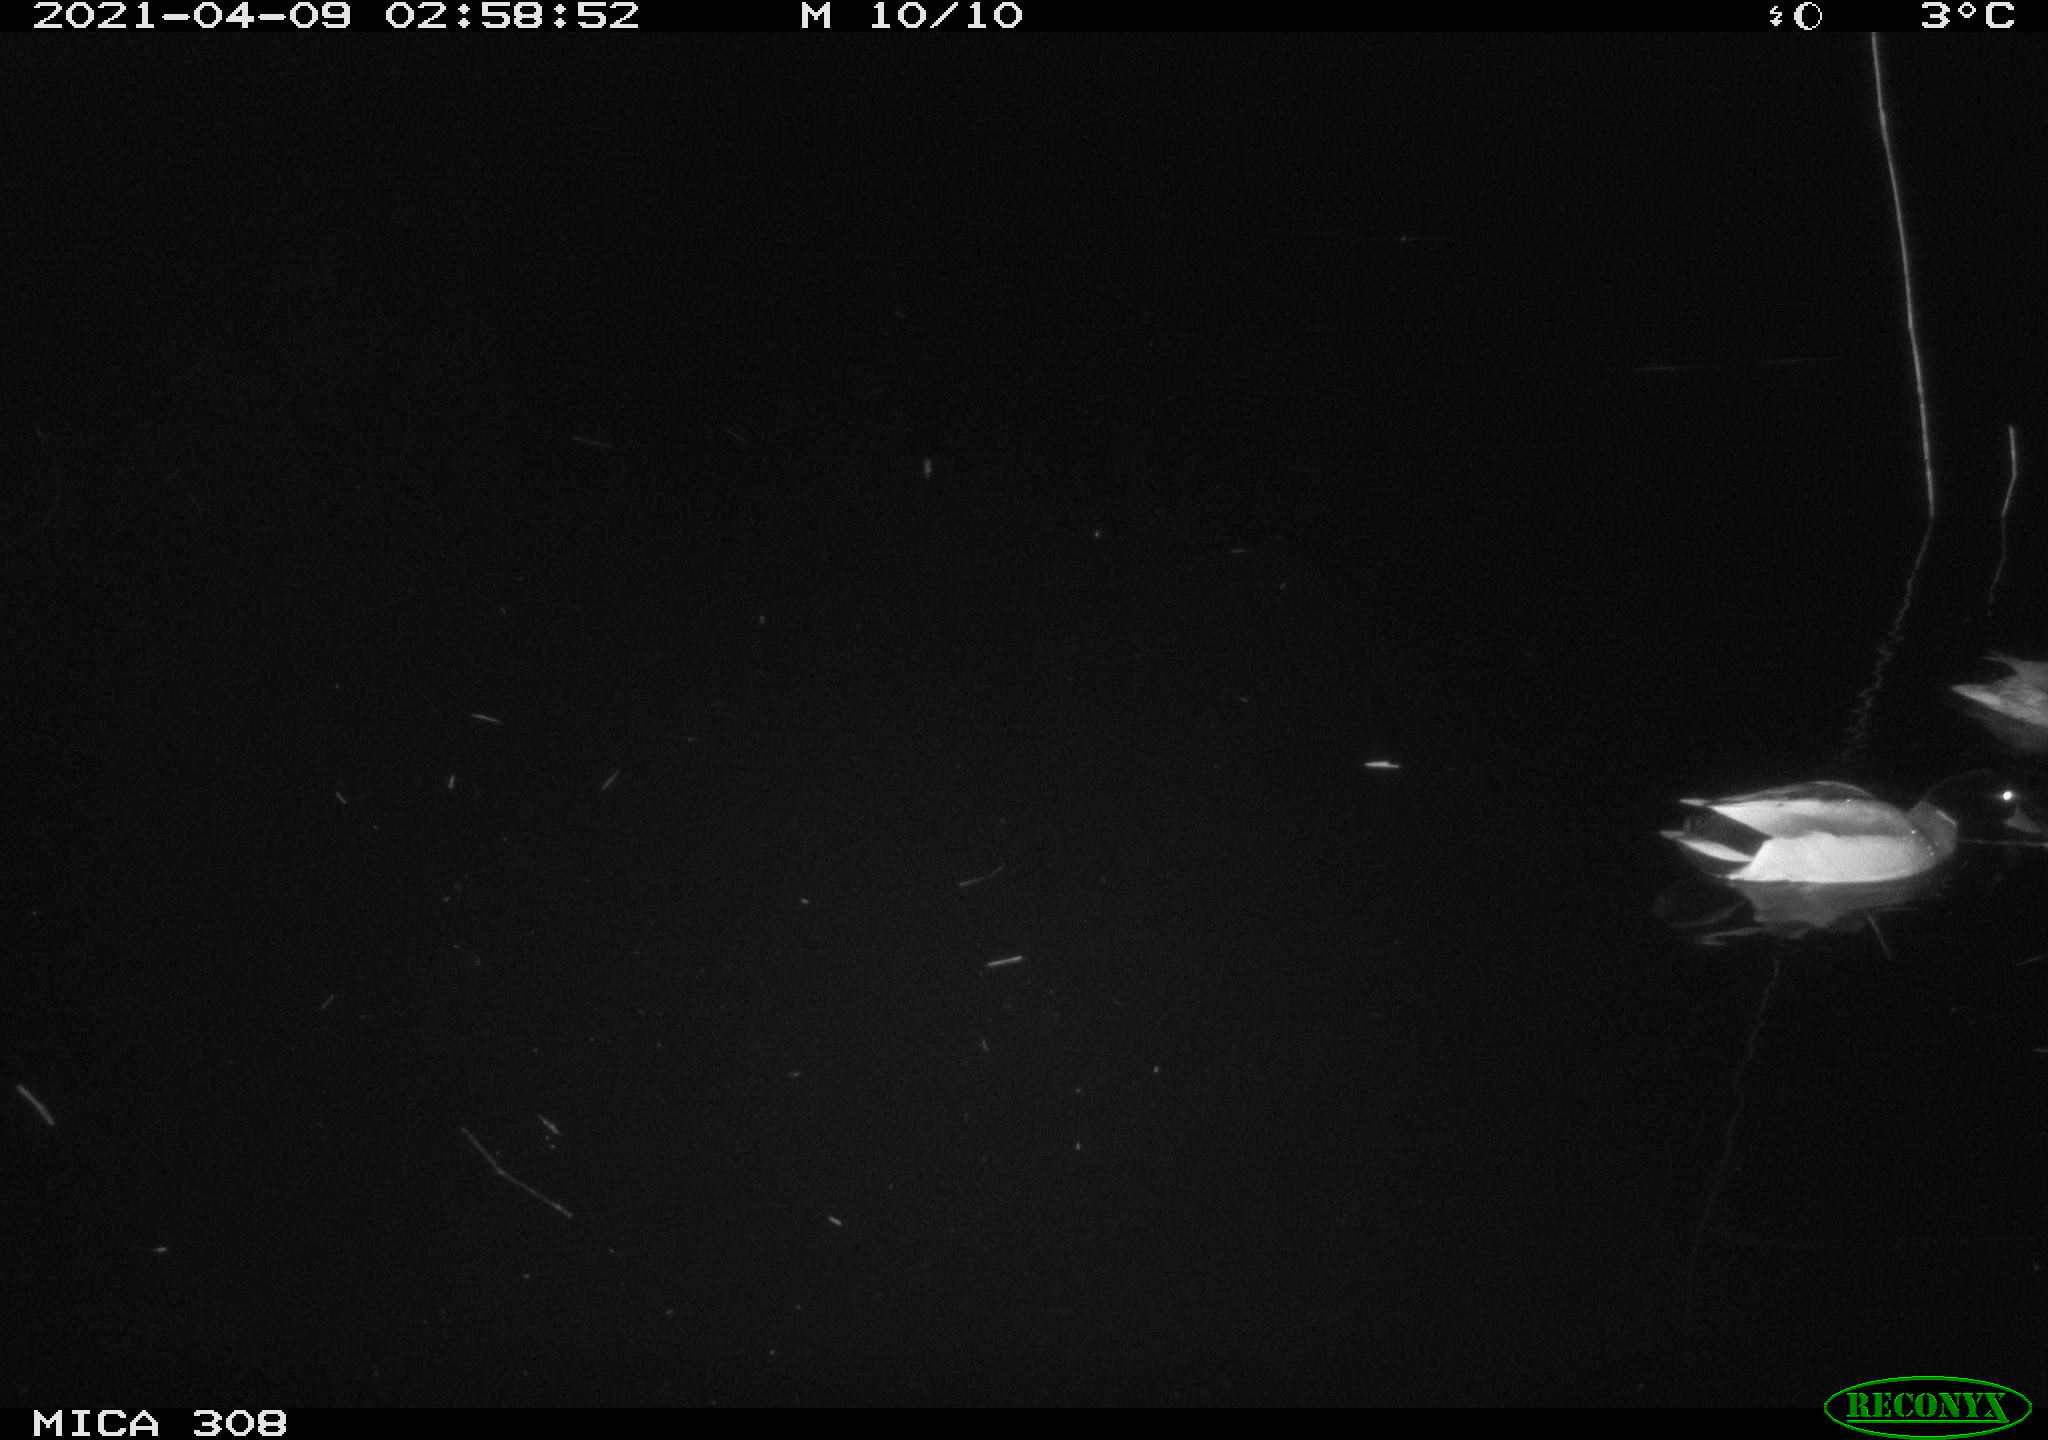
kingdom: Animalia
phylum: Chordata
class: Aves
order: Anseriformes
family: Anatidae
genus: Anas
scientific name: Anas platyrhynchos
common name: Mallard
